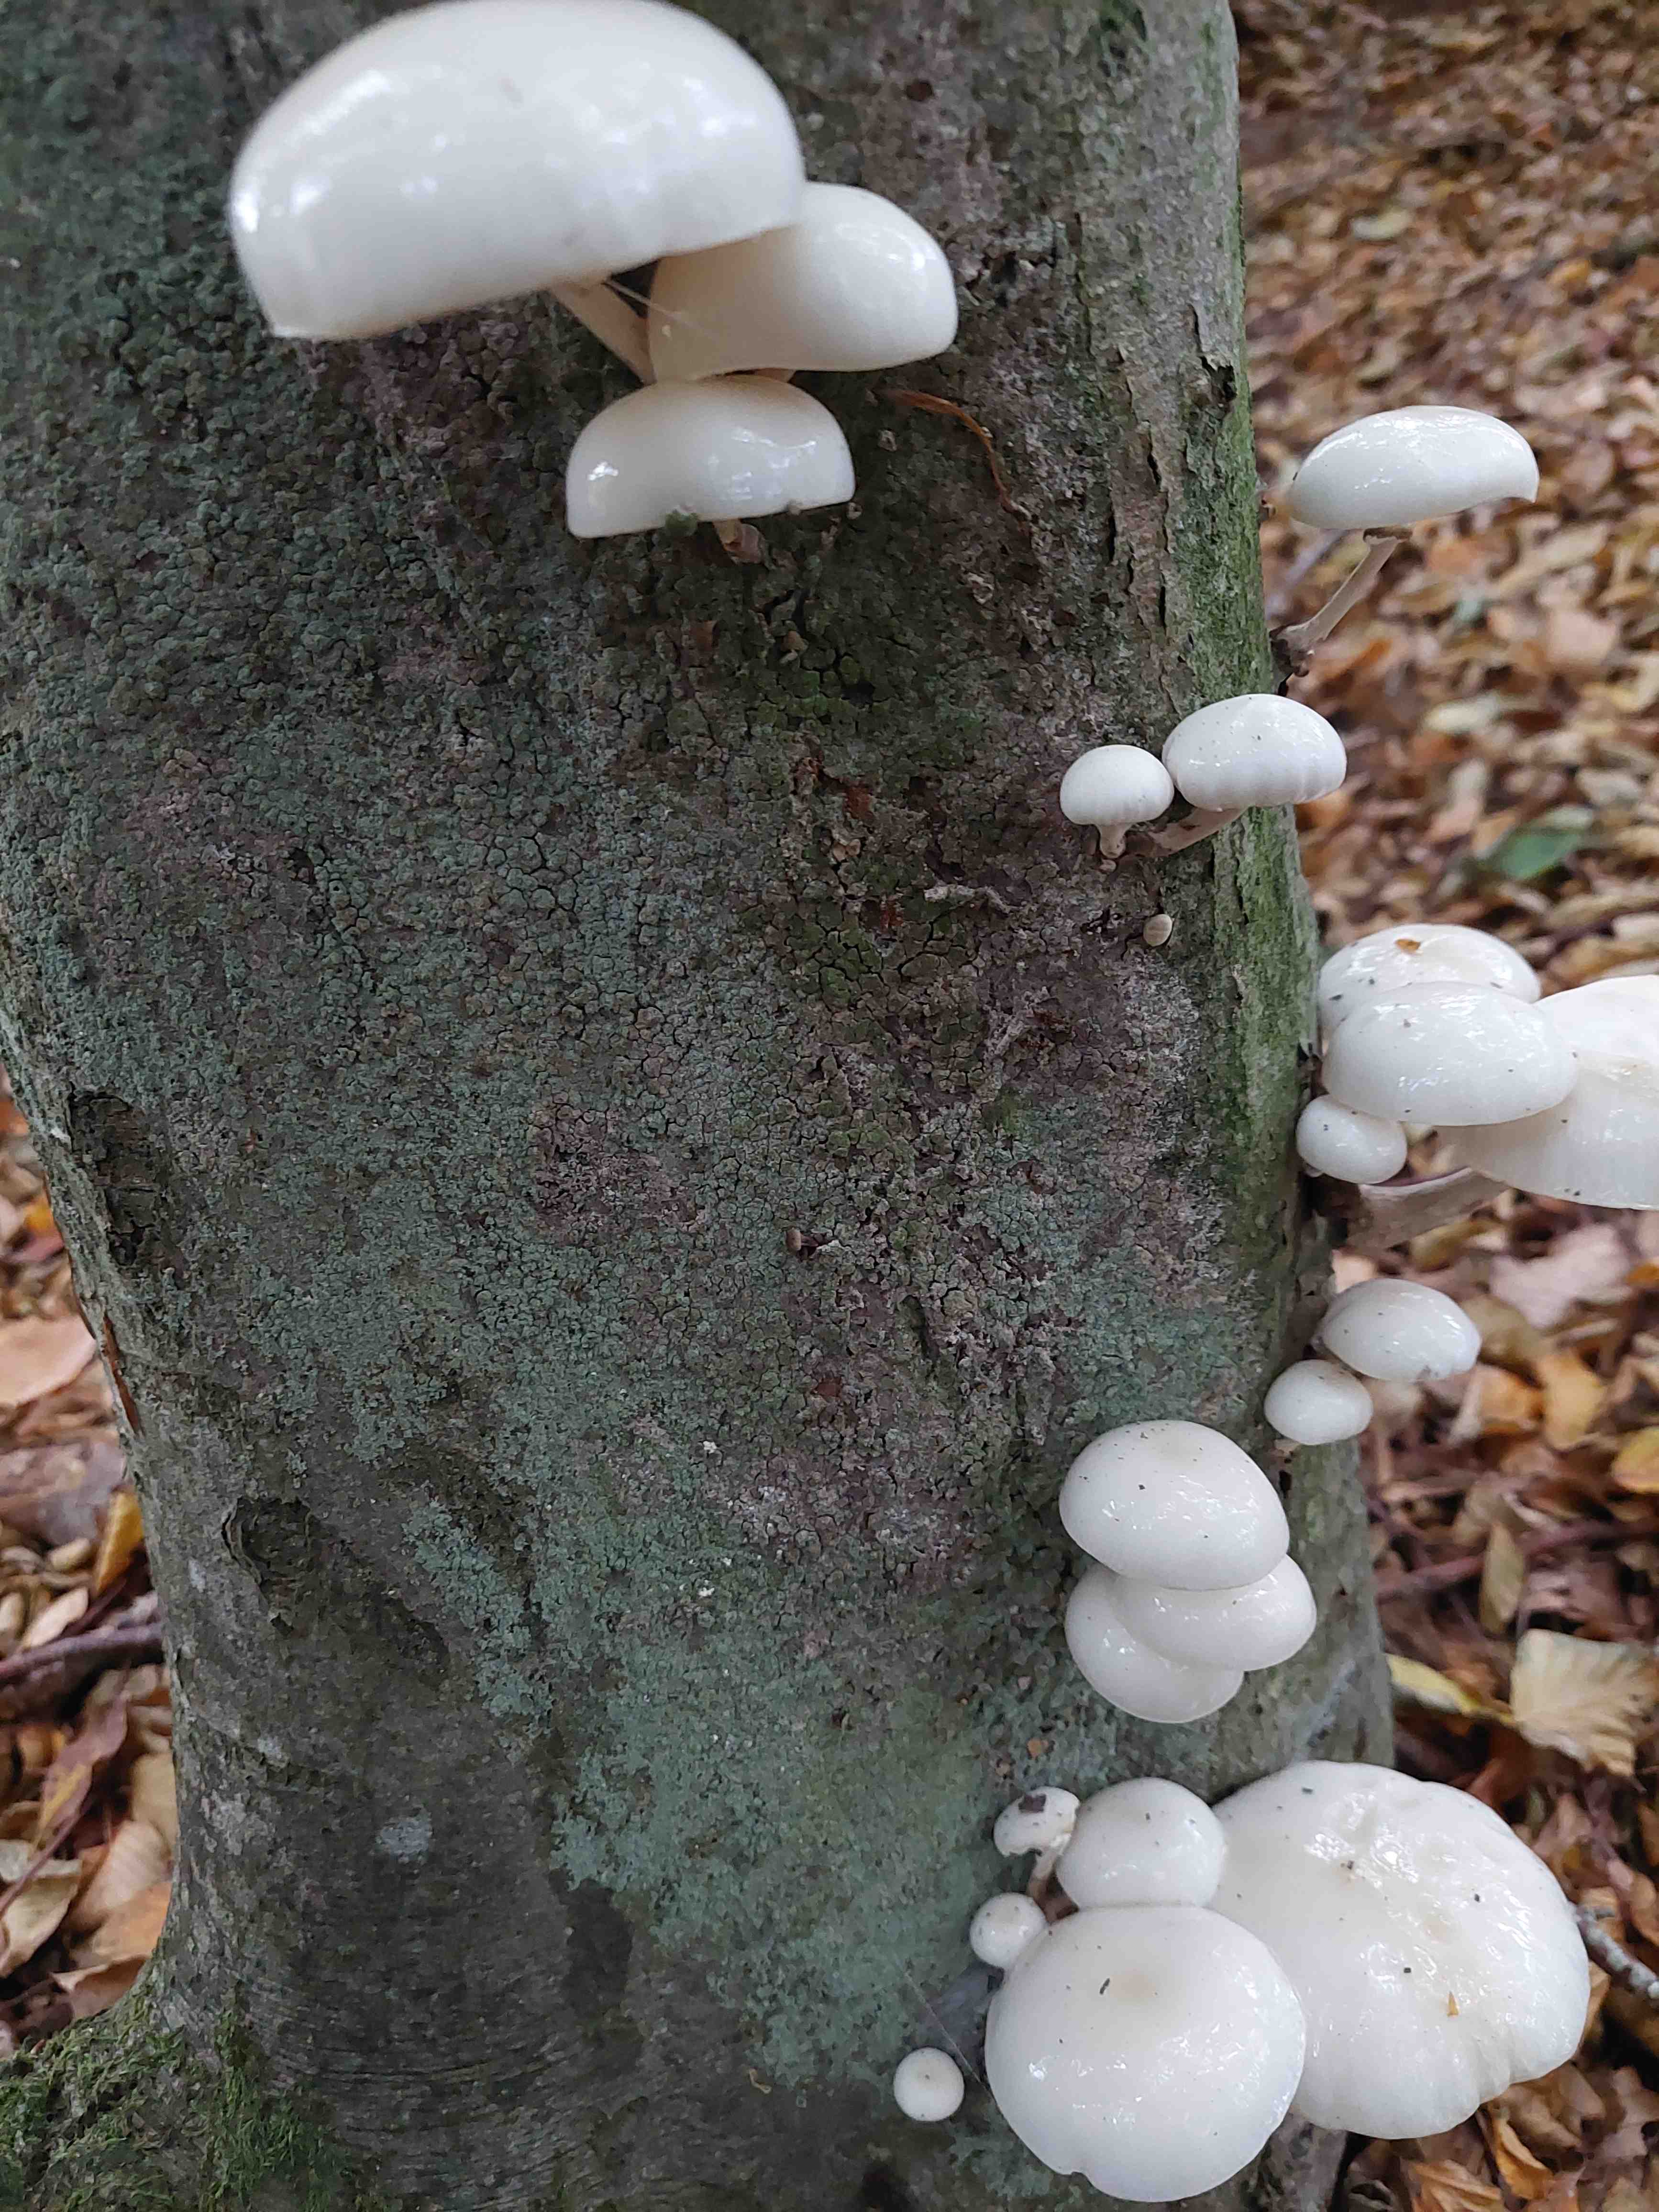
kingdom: Fungi
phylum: Basidiomycota
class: Agaricomycetes
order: Agaricales
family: Physalacriaceae
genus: Mucidula
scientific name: Mucidula mucida
